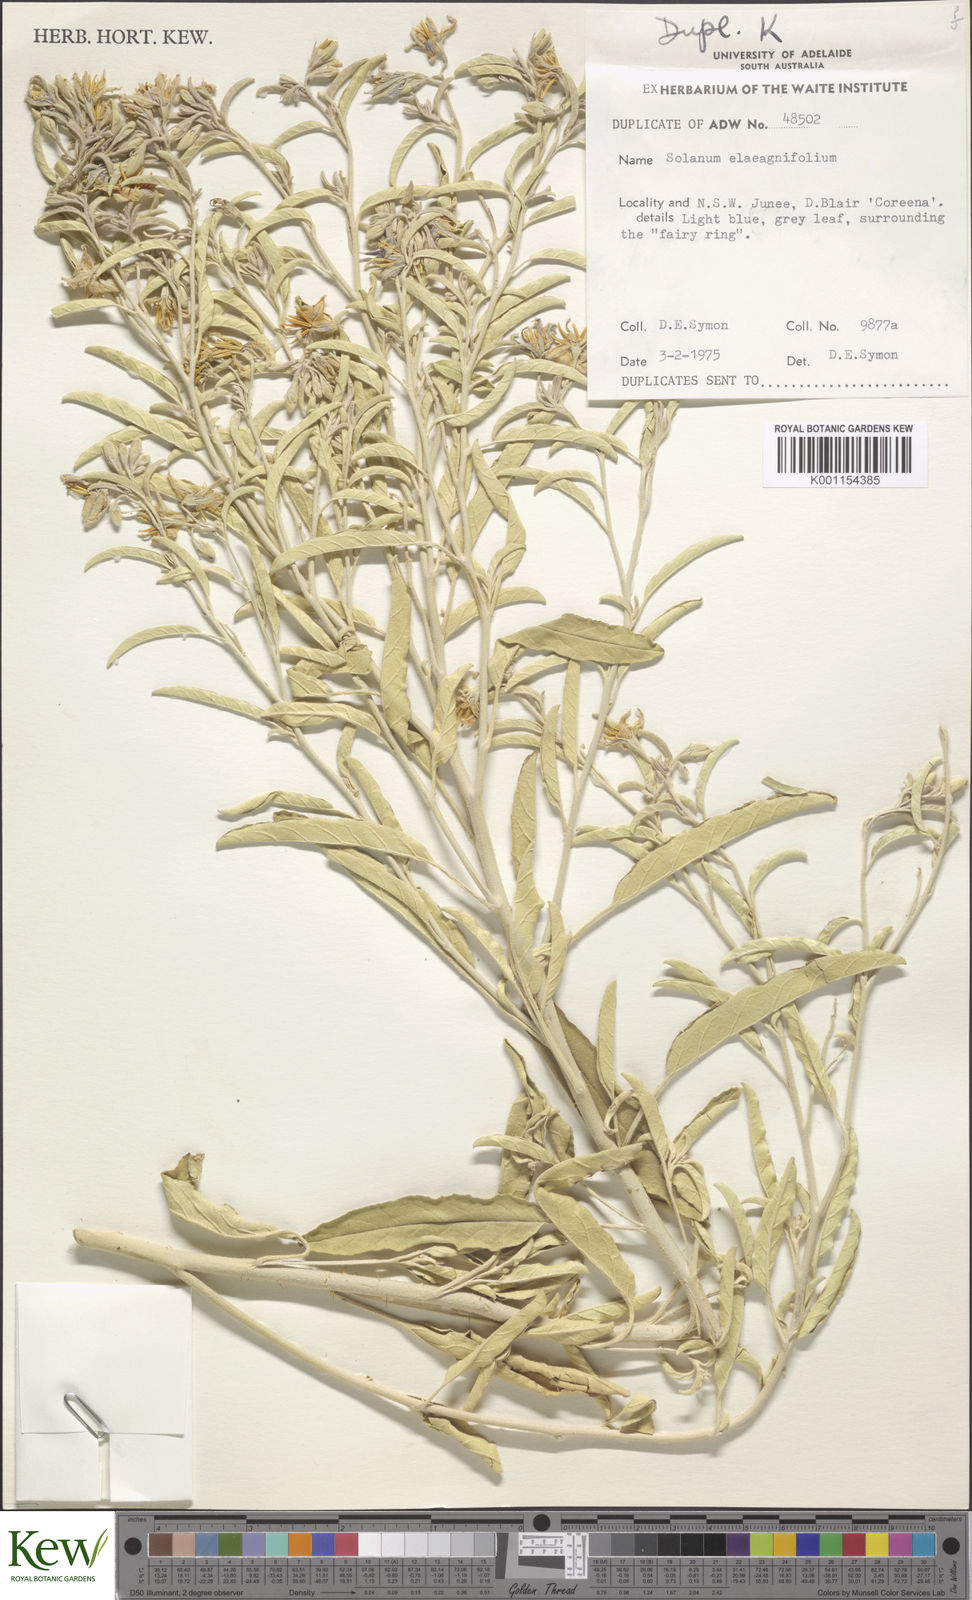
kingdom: Plantae
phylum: Tracheophyta
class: Magnoliopsida
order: Solanales
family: Solanaceae
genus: Solanum
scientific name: Solanum elaeagnifolium
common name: Silverleaf nightshade
